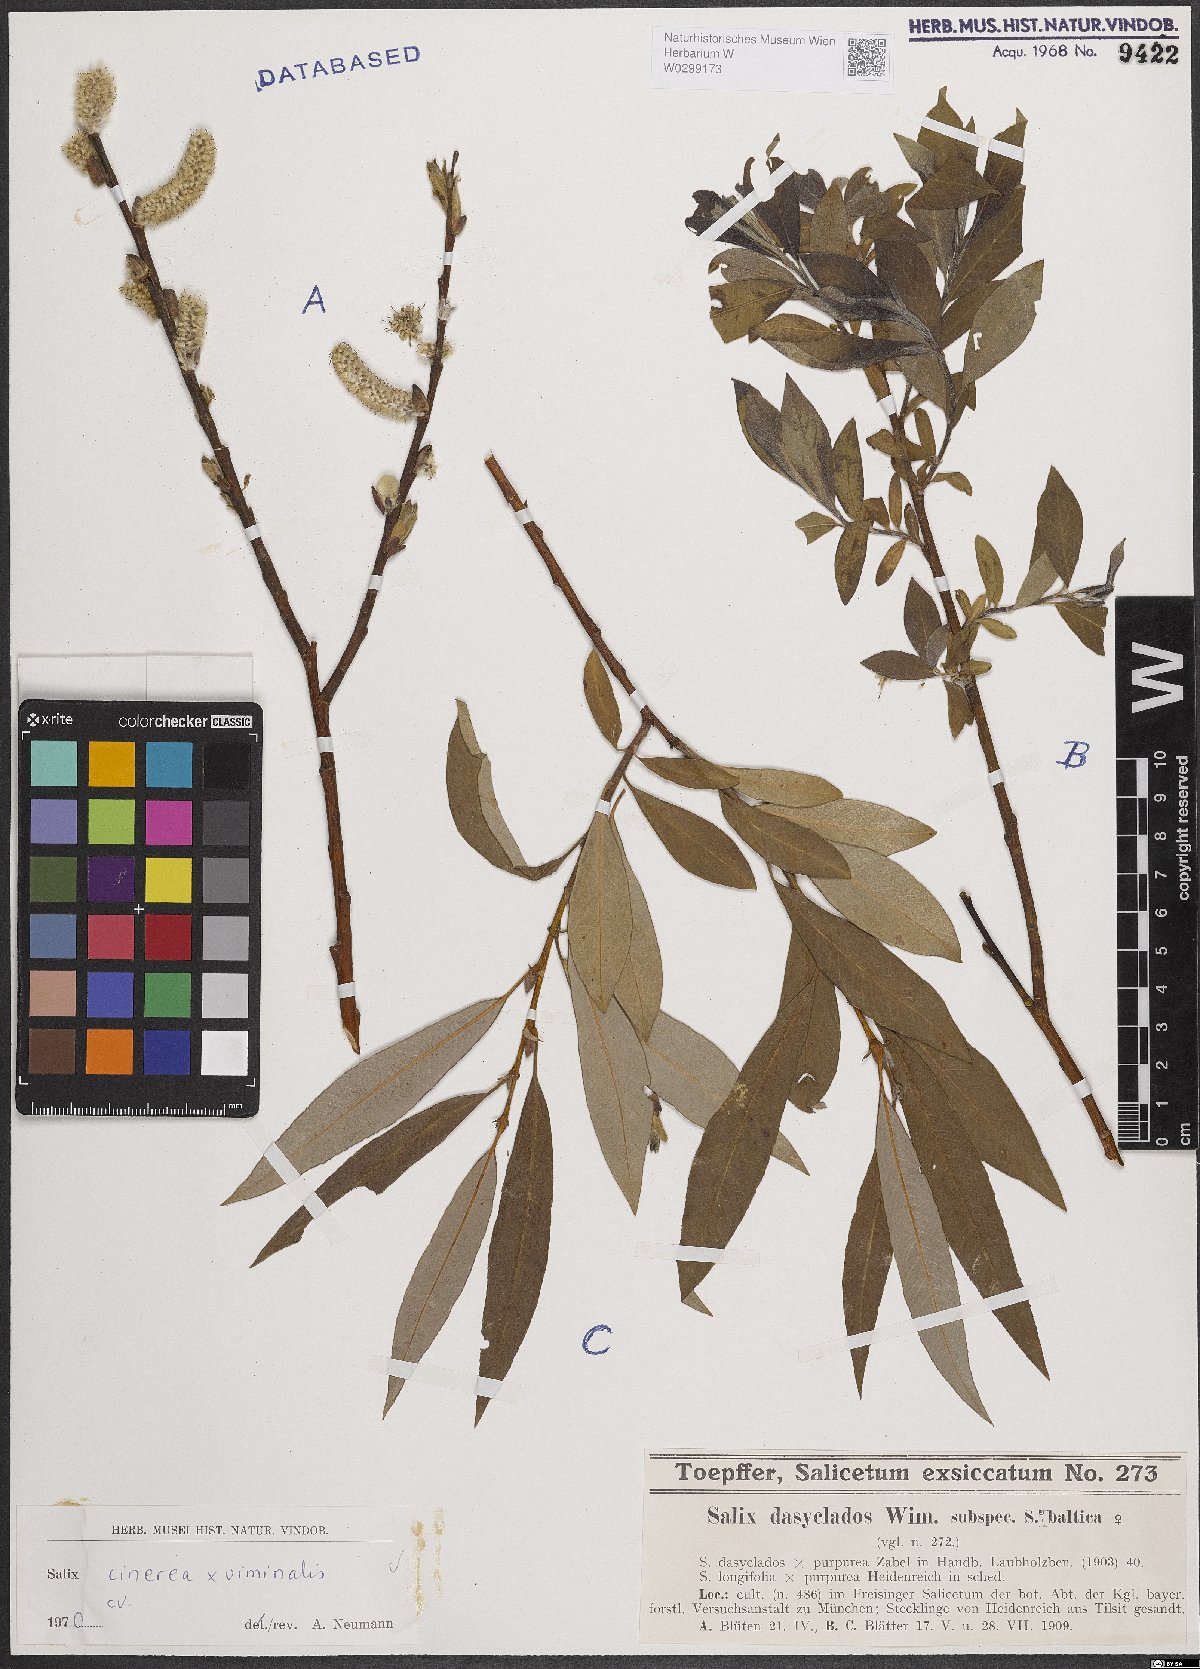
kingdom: Plantae
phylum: Tracheophyta
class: Magnoliopsida
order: Malpighiales
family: Salicaceae
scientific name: Salicaceae
